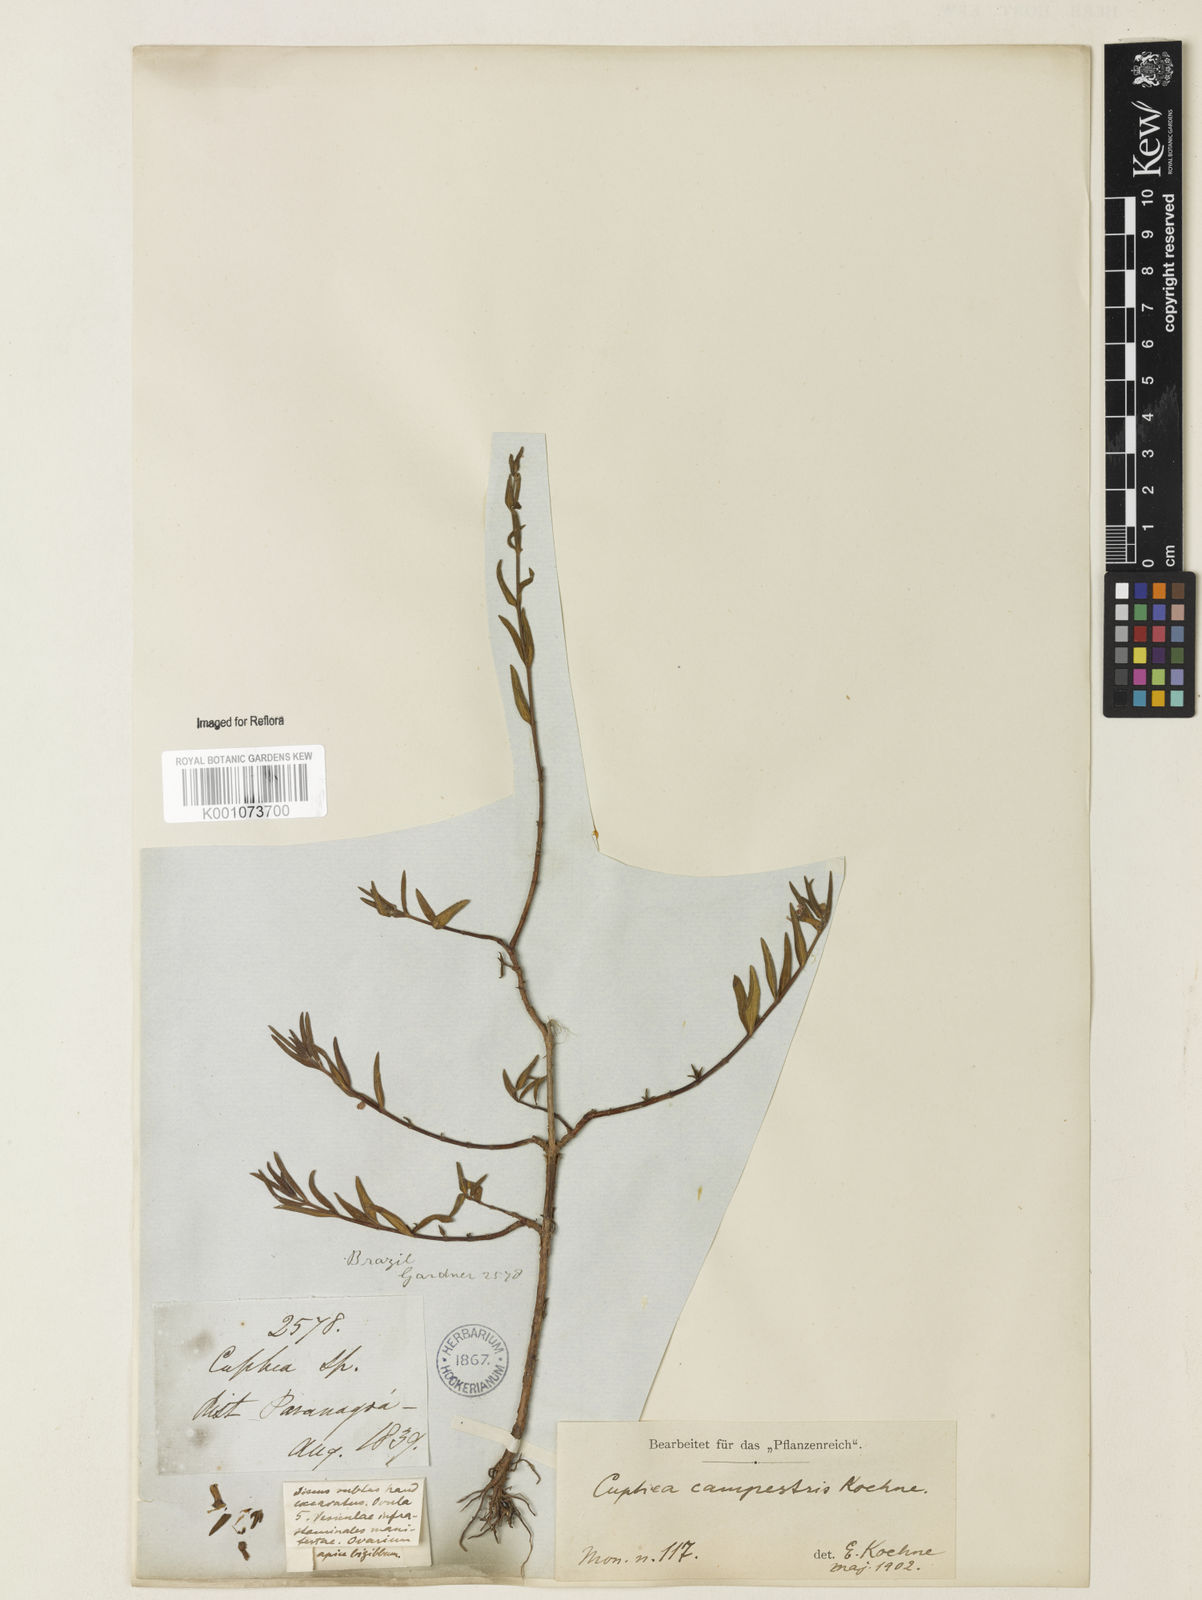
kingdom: Plantae
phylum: Tracheophyta
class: Magnoliopsida
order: Myrtales
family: Lythraceae
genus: Cuphea
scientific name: Cuphea campestris
